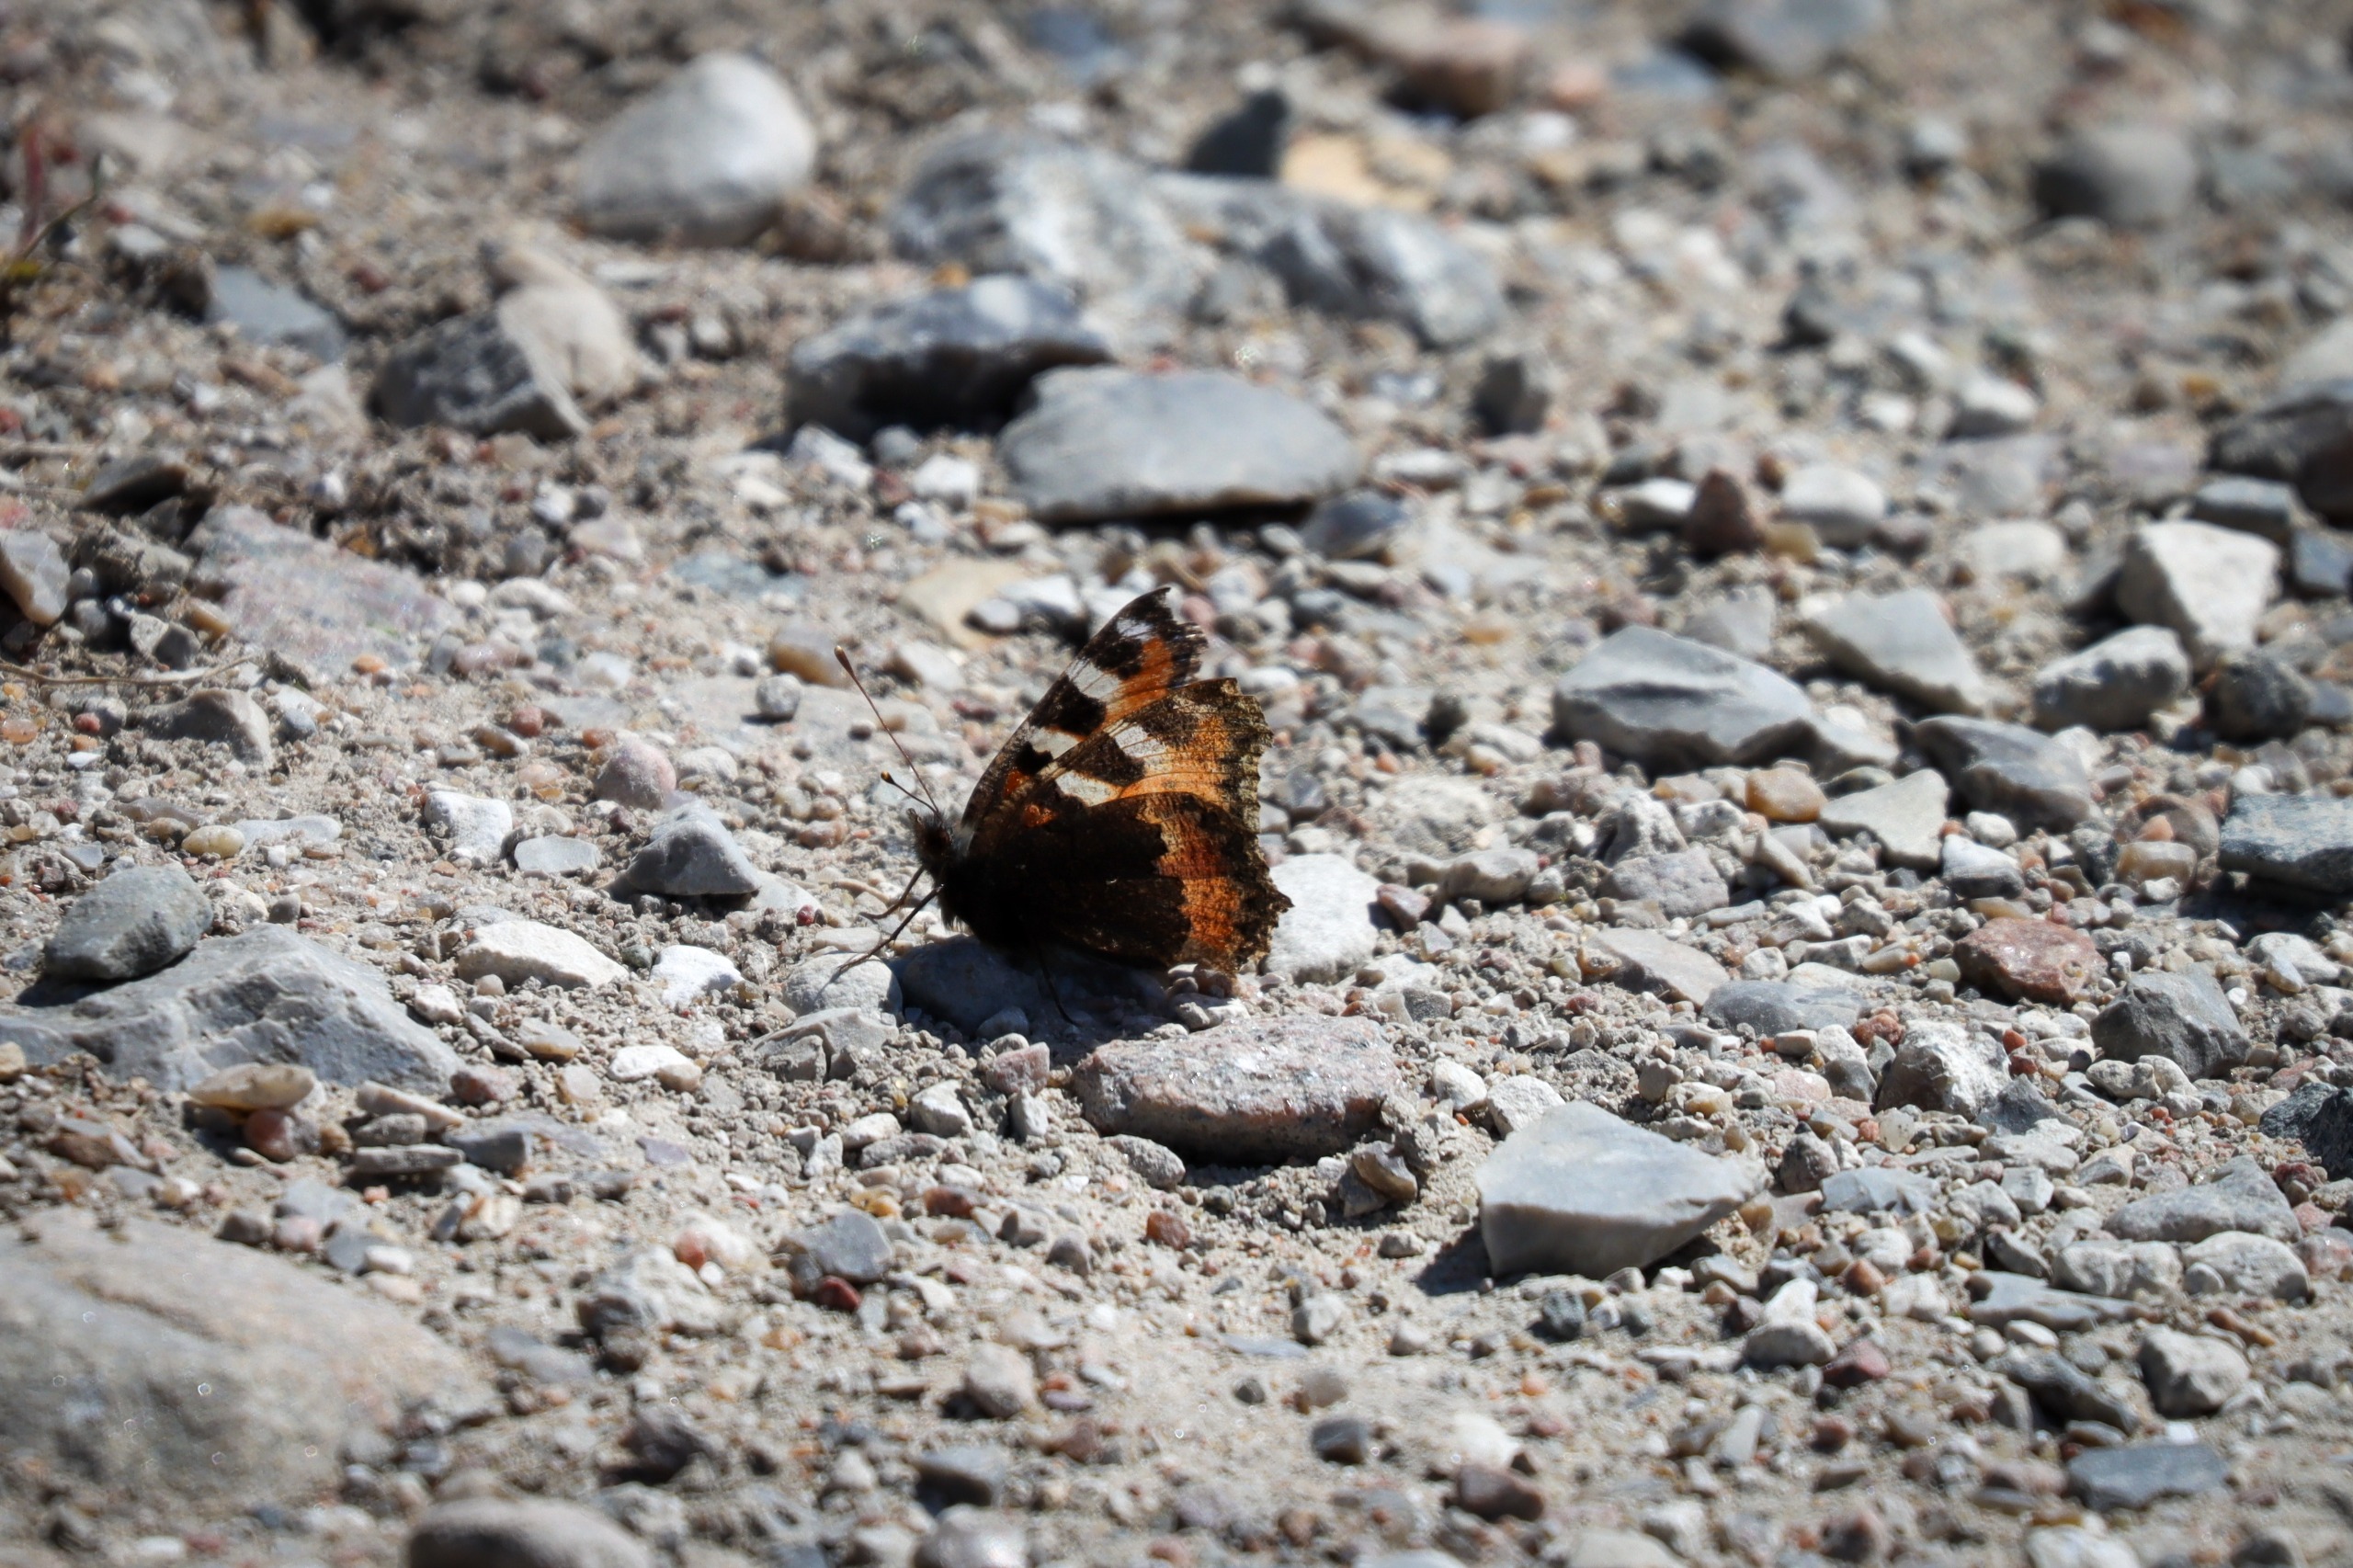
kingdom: Animalia
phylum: Arthropoda
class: Insecta
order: Lepidoptera
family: Nymphalidae
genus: Aglais
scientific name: Aglais urticae
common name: Nældens takvinge
